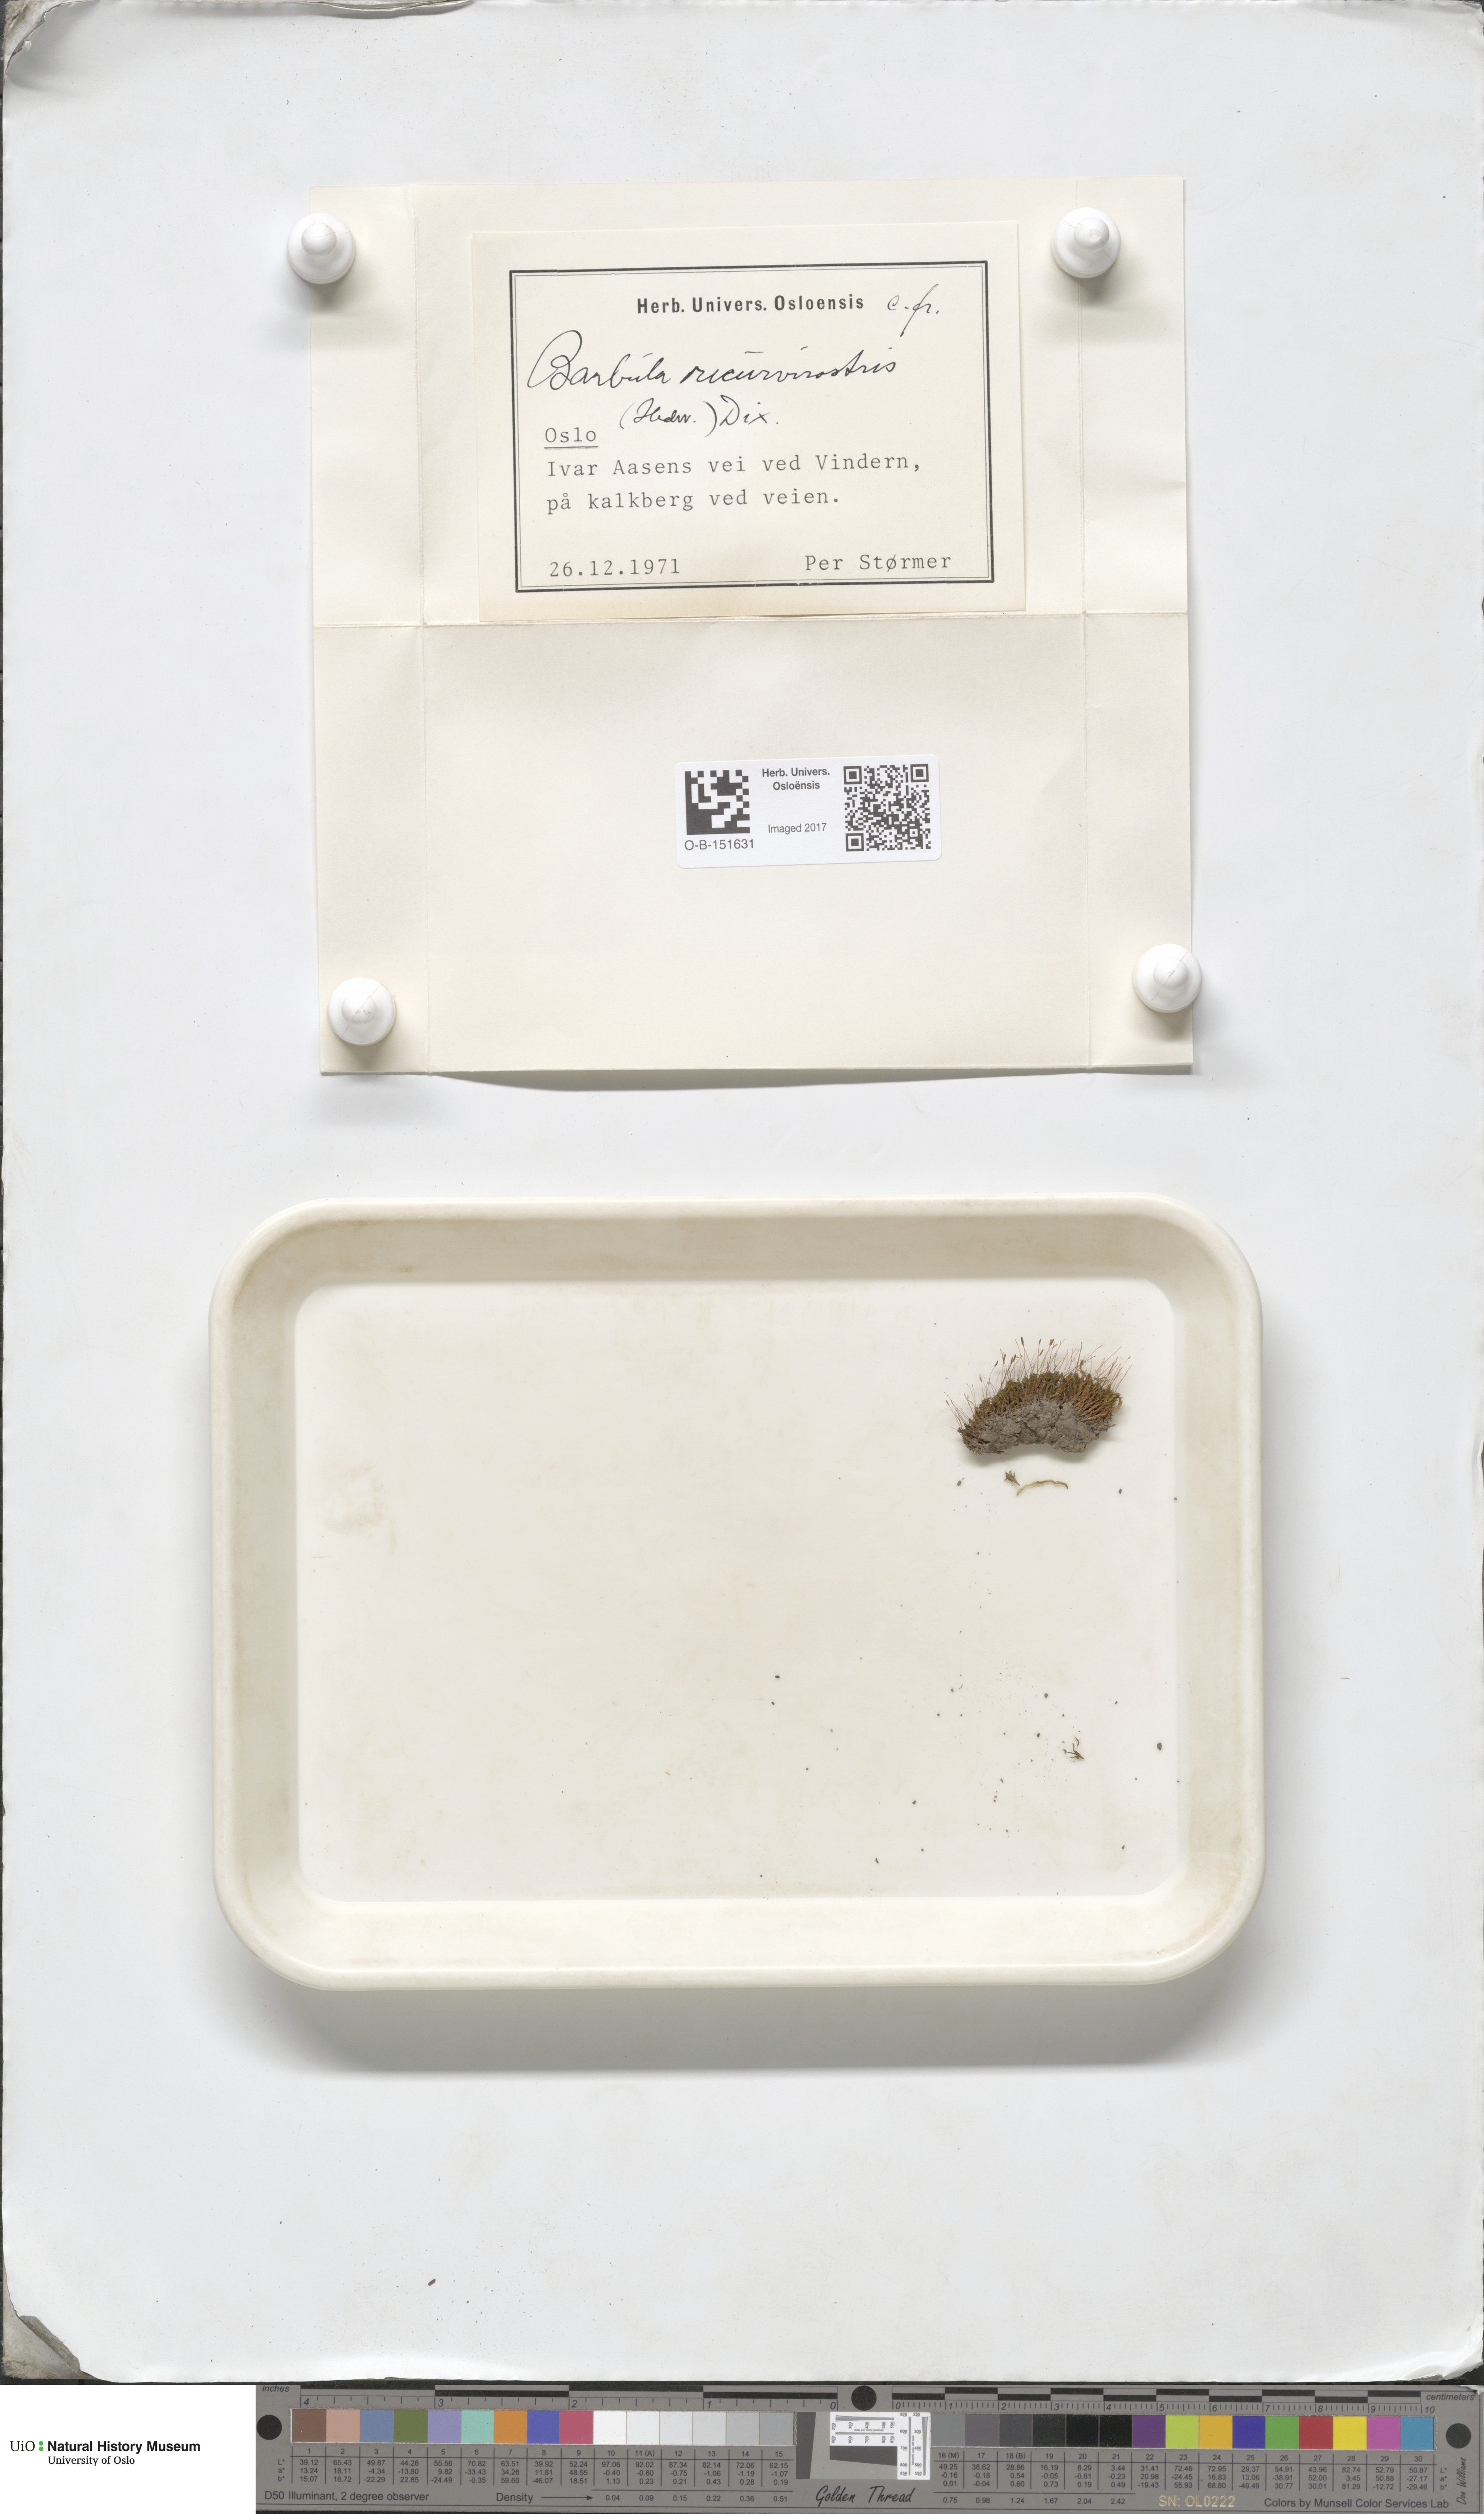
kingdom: Plantae
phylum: Bryophyta
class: Bryopsida
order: Pottiales
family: Pottiaceae
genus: Bryoerythrophyllum
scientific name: Bryoerythrophyllum recurvirostrum
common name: Red beard moss
